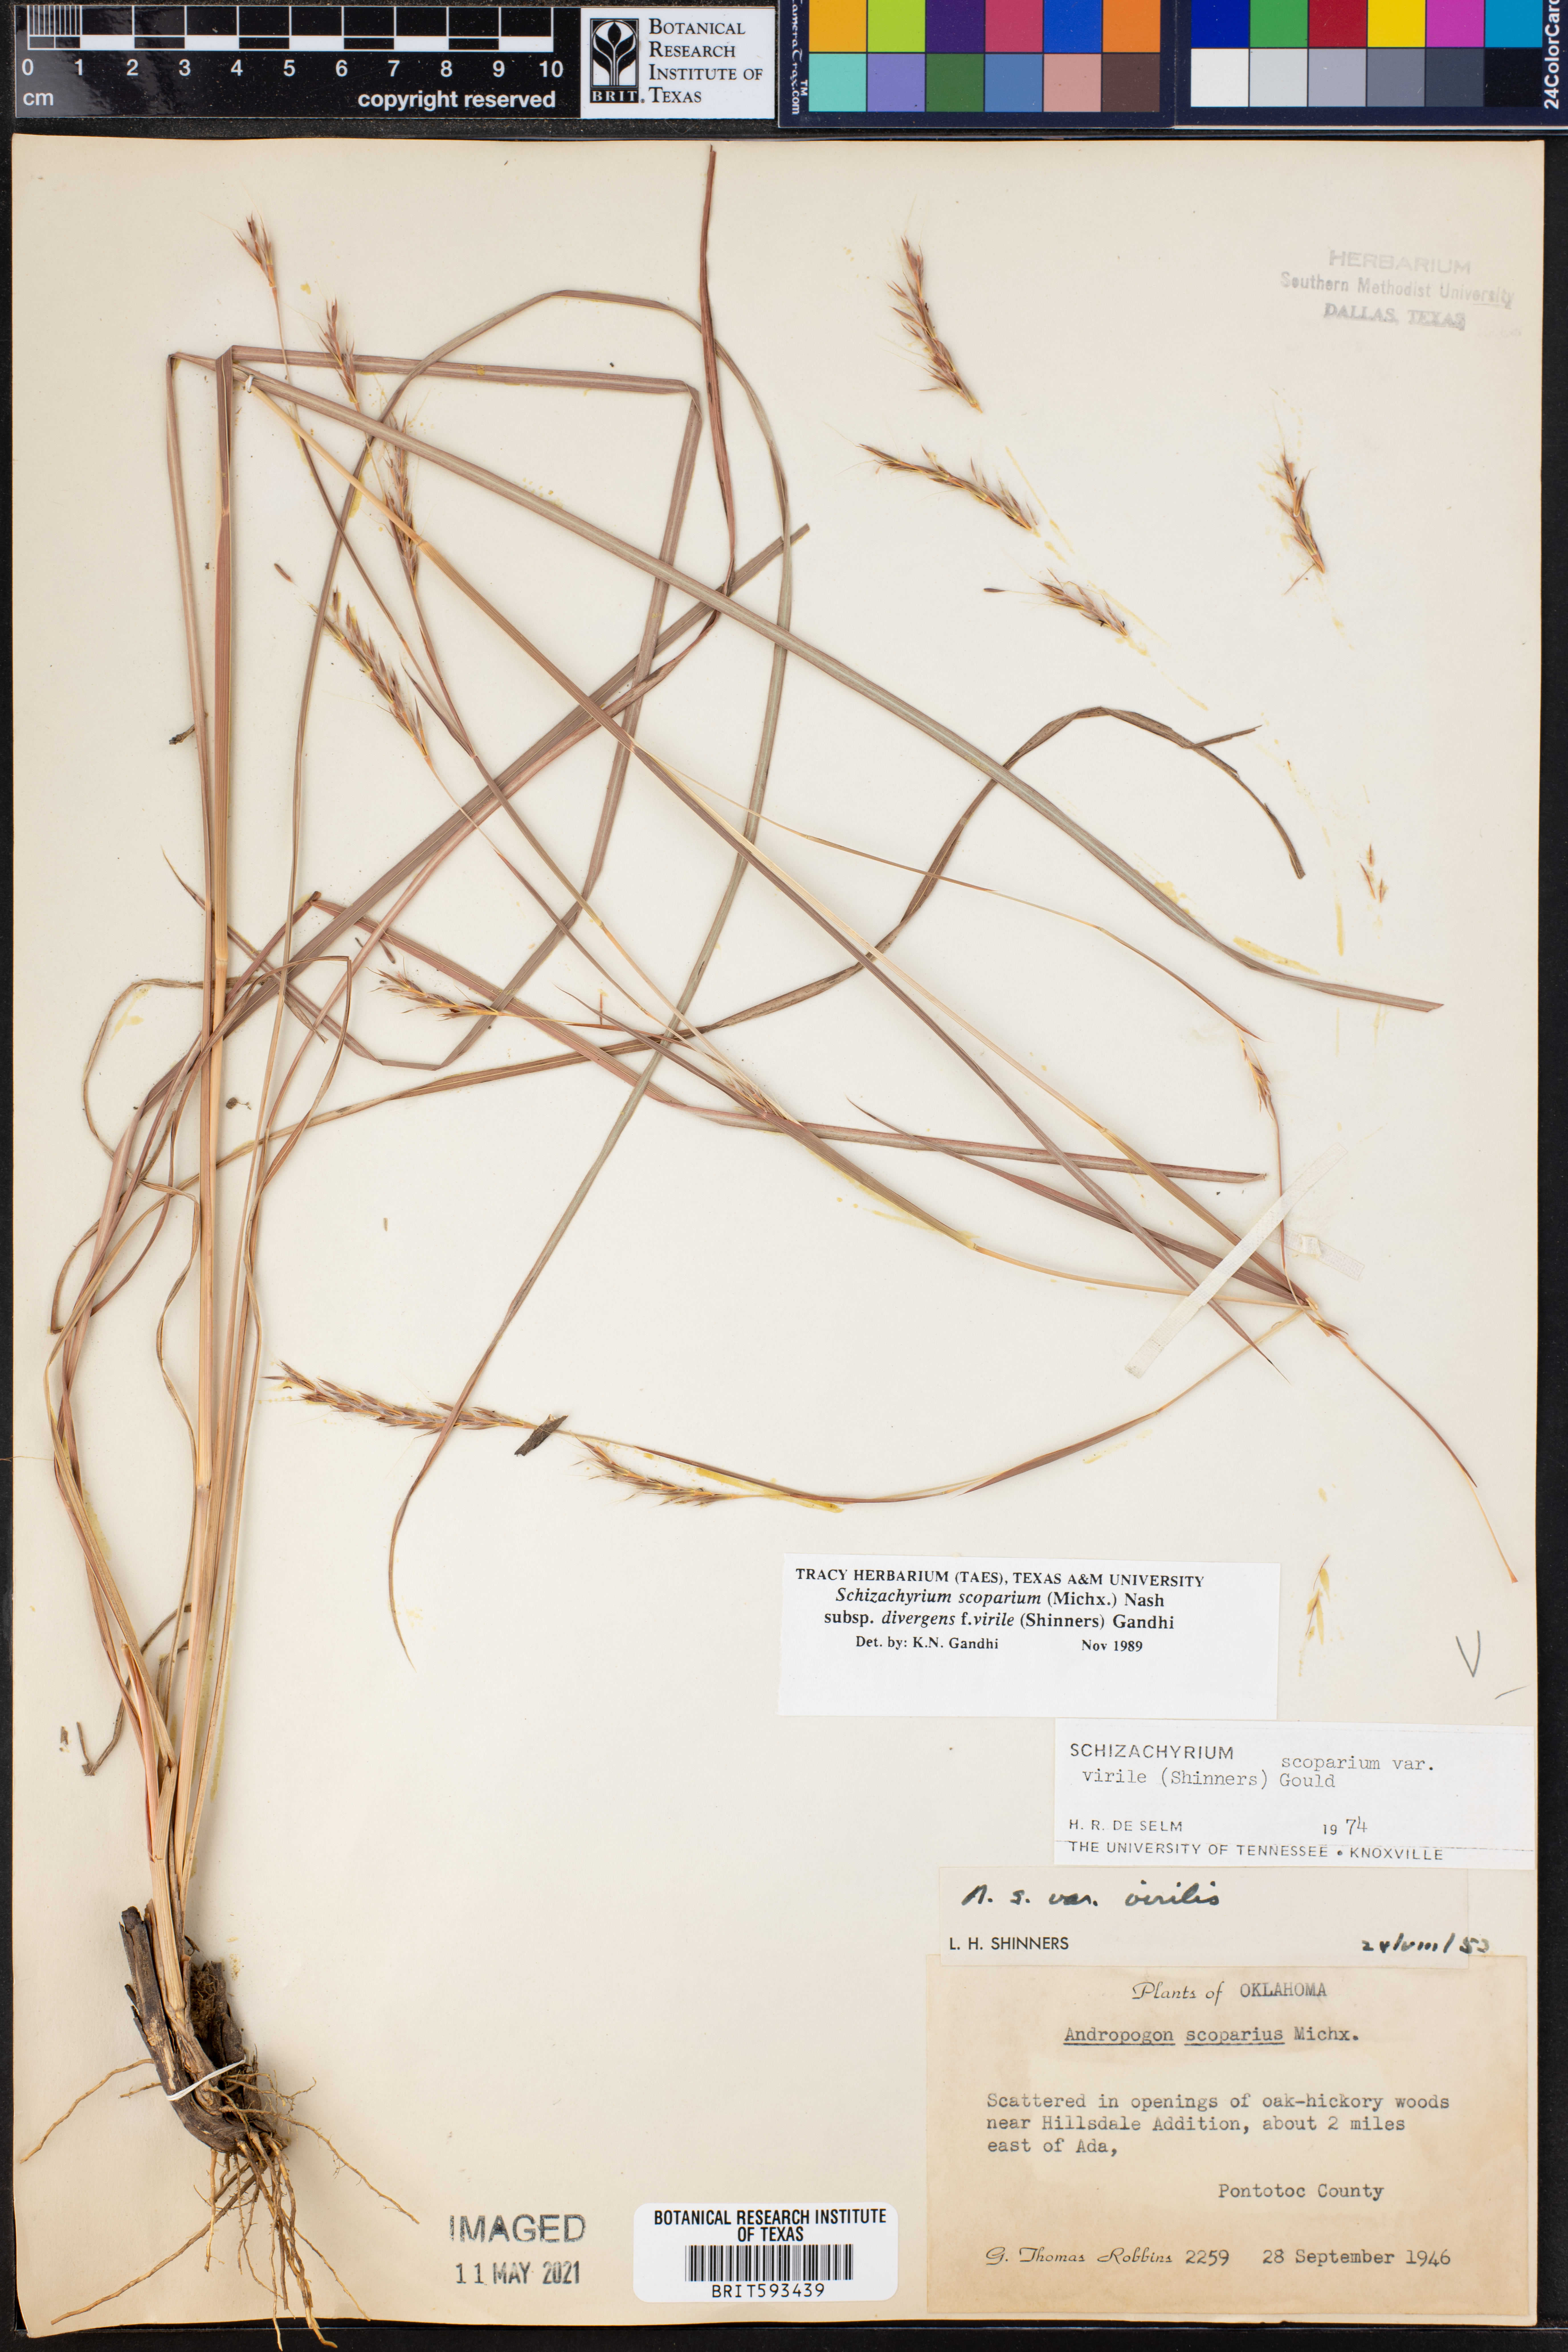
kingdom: Plantae
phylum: Tracheophyta
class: Liliopsida
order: Poales
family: Poaceae
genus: Schizachyrium
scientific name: Schizachyrium scoparium
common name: Little bluestem
